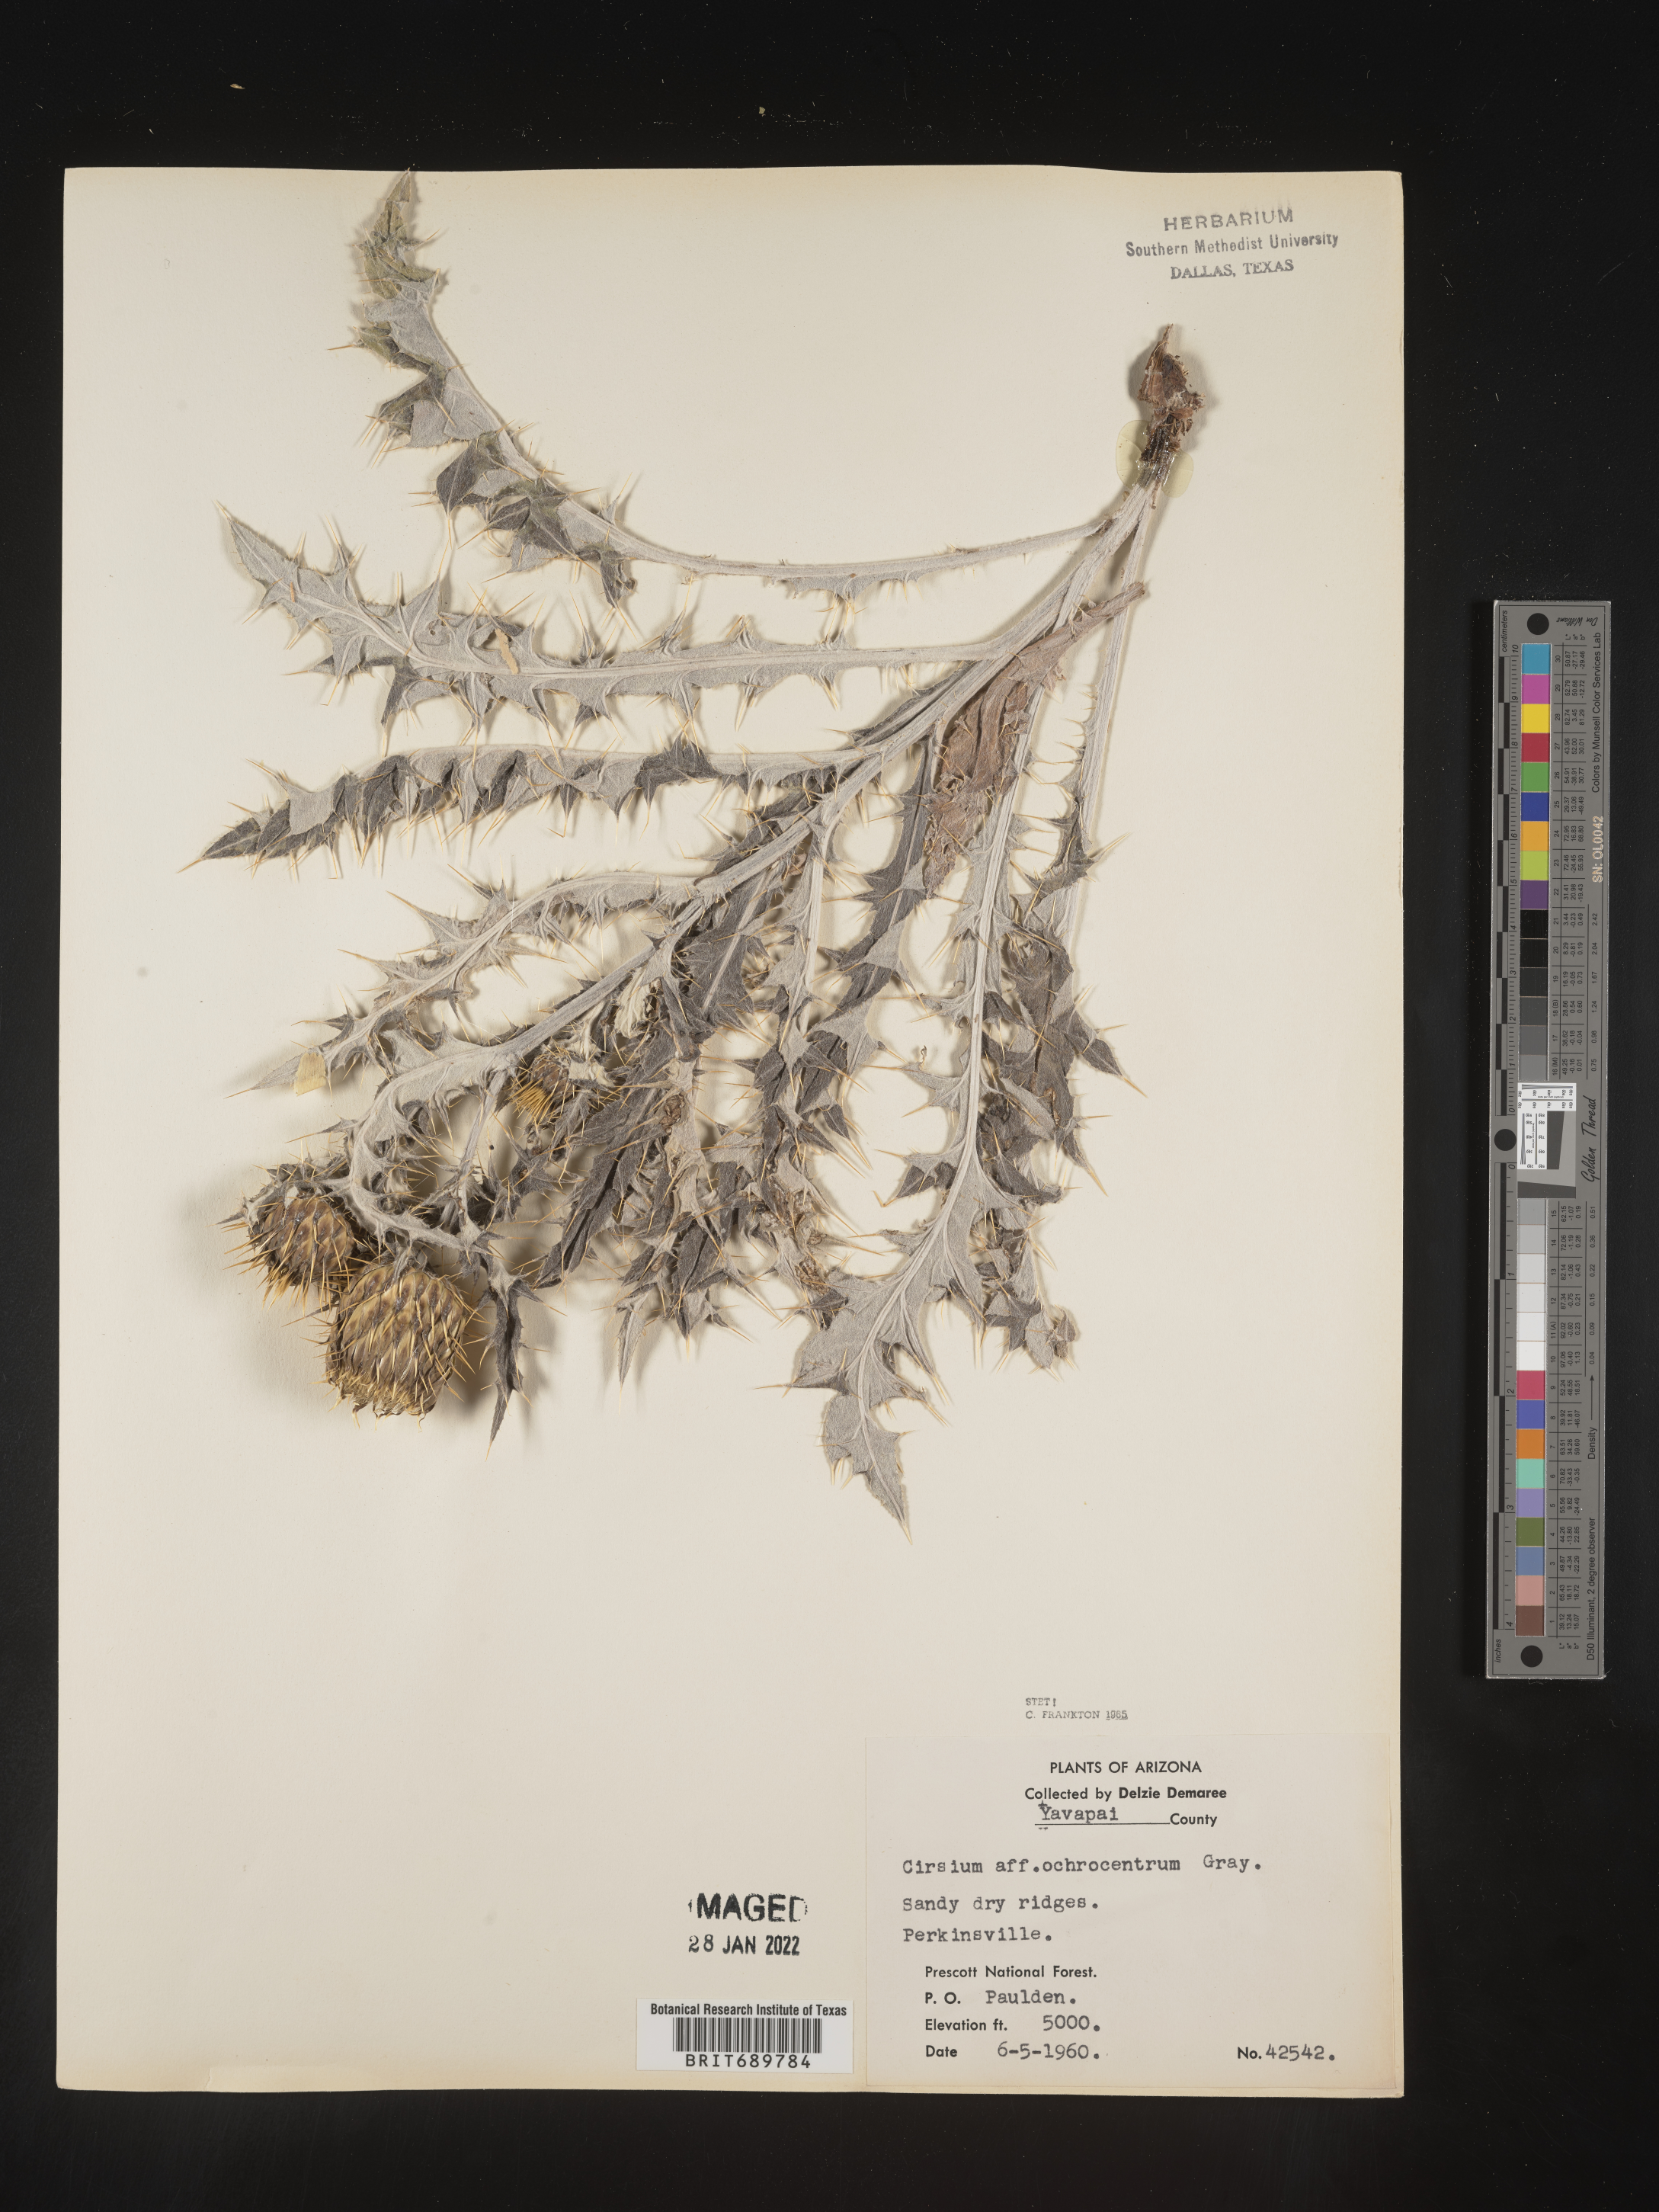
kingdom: Plantae
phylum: Tracheophyta
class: Magnoliopsida
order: Asterales
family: Asteraceae
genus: Cirsium
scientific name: Cirsium ochrocentrum
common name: Yellow-spine thistle
